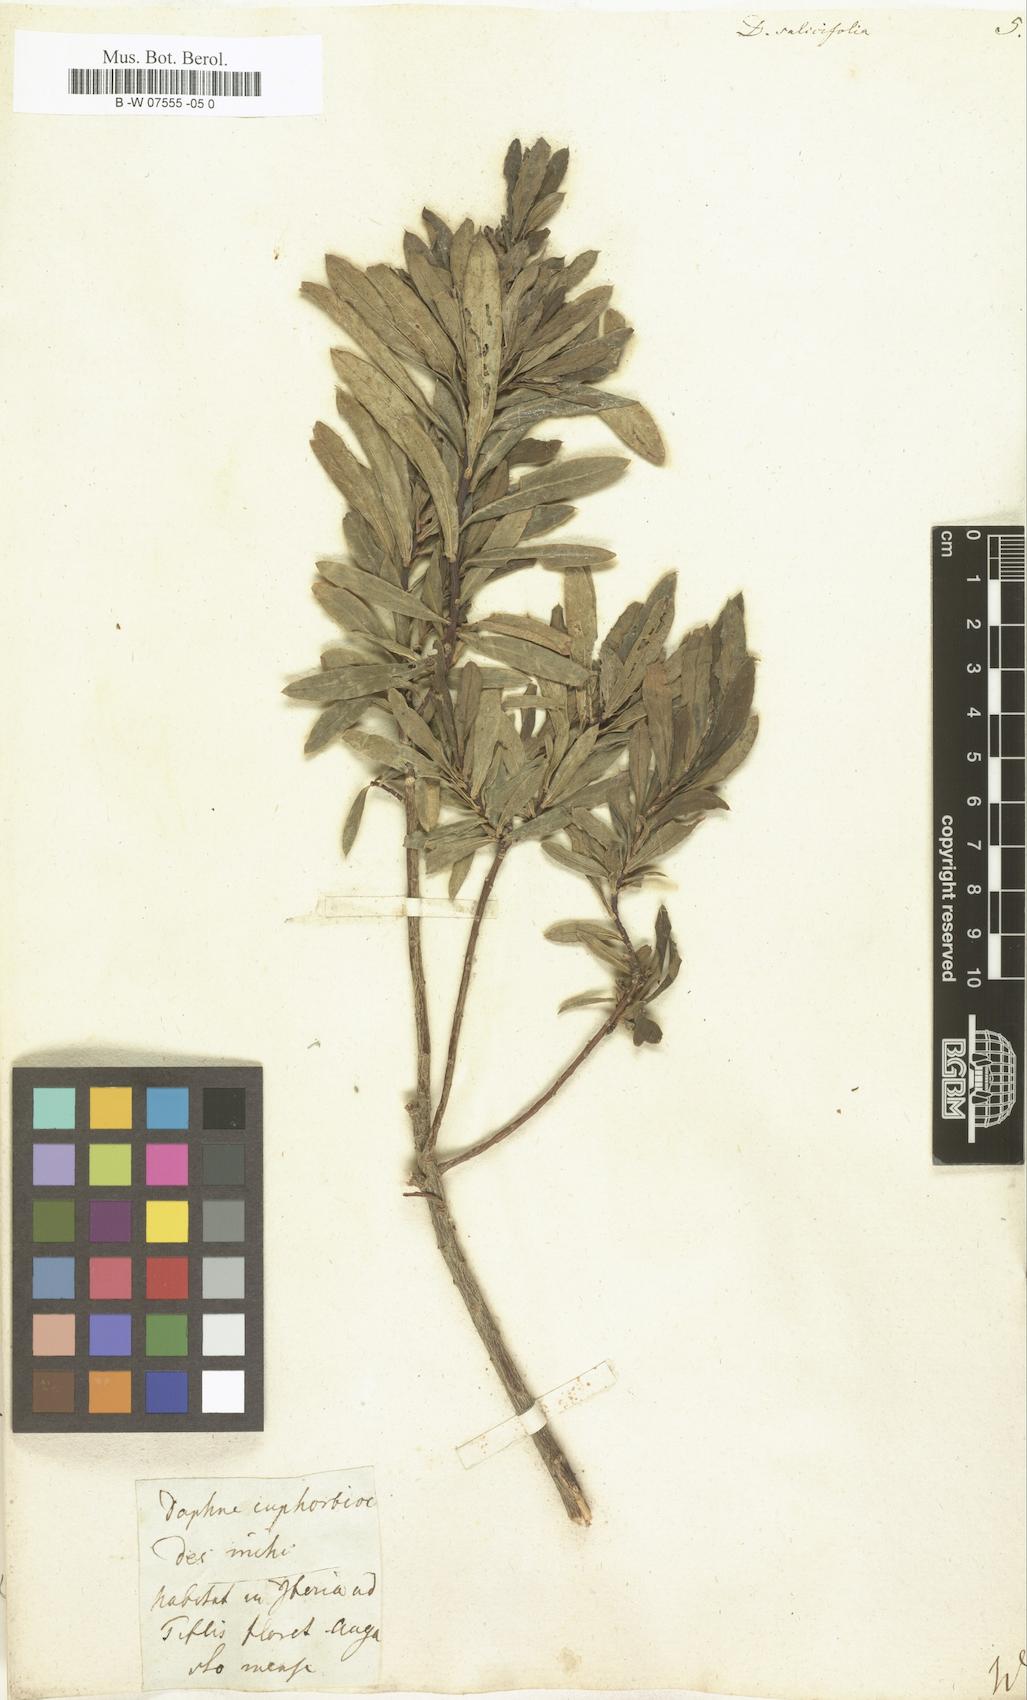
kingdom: Plantae
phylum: Tracheophyta
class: Magnoliopsida
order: Malvales
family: Thymelaeaceae
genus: Daphne
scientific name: Daphne caucasica
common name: Caucasian daphne
